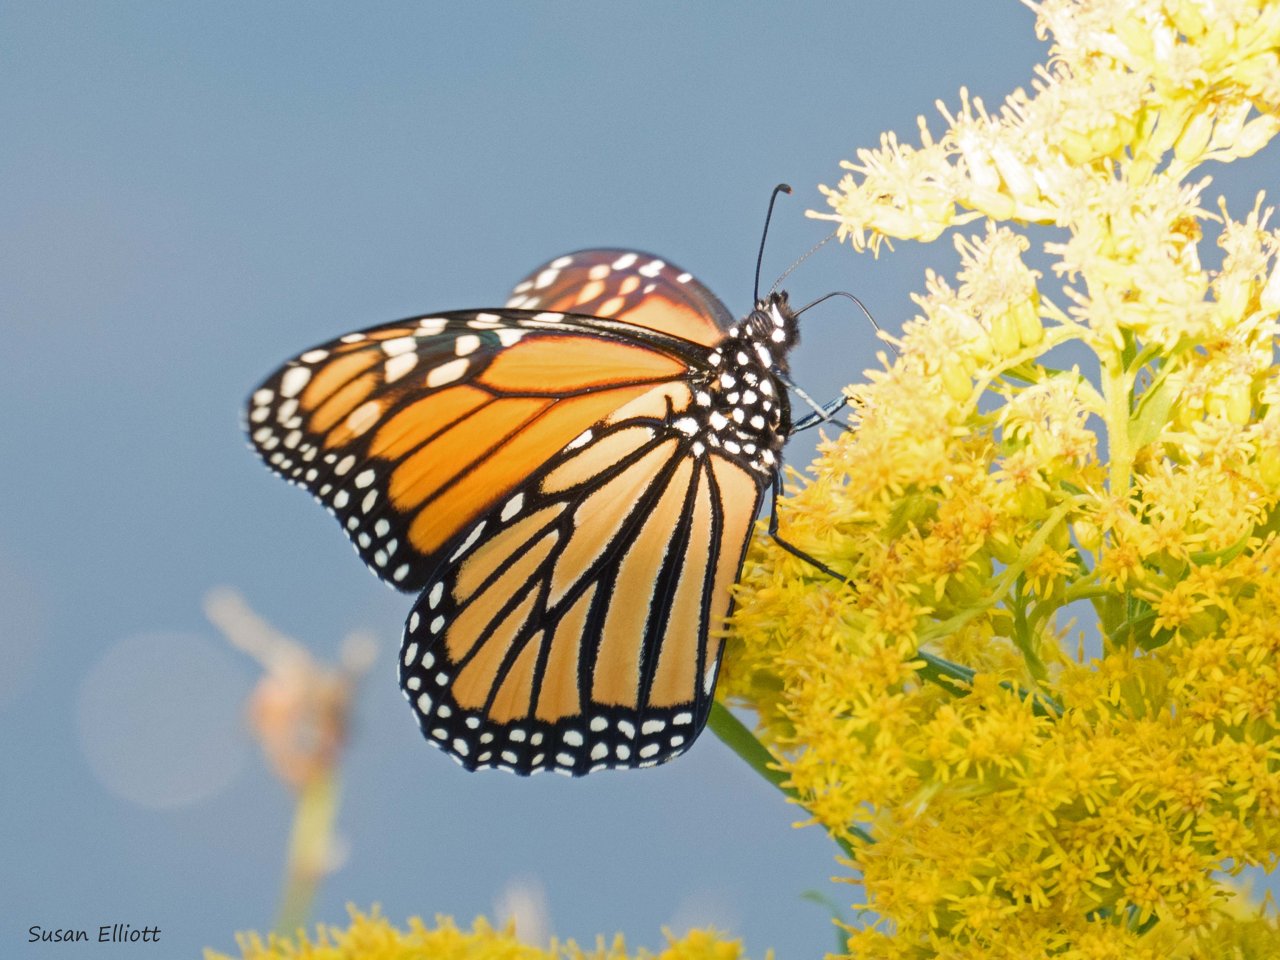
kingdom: Animalia
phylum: Arthropoda
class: Insecta
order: Lepidoptera
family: Nymphalidae
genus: Danaus
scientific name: Danaus plexippus
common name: Monarch
